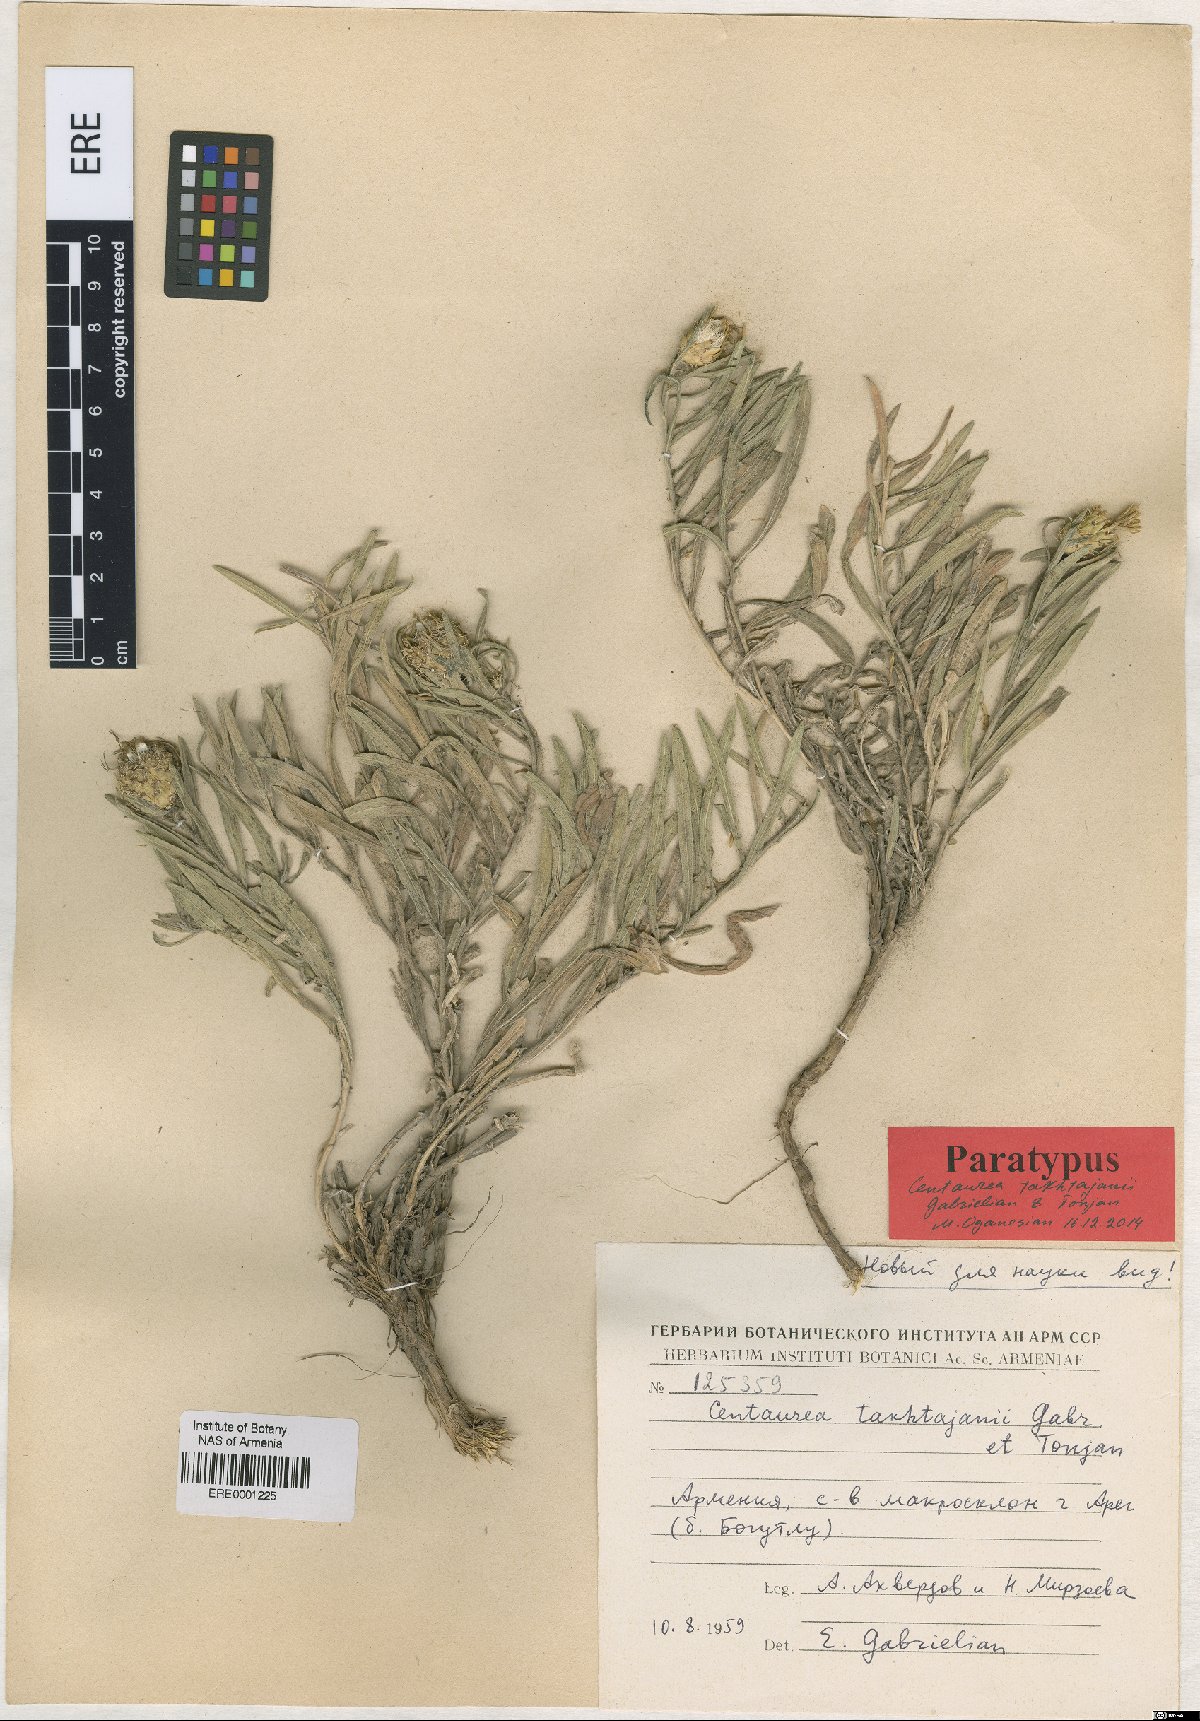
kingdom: Plantae
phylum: Tracheophyta
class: Magnoliopsida
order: Asterales
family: Asteraceae
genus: Centaurea
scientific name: Centaurea takhtajanii
